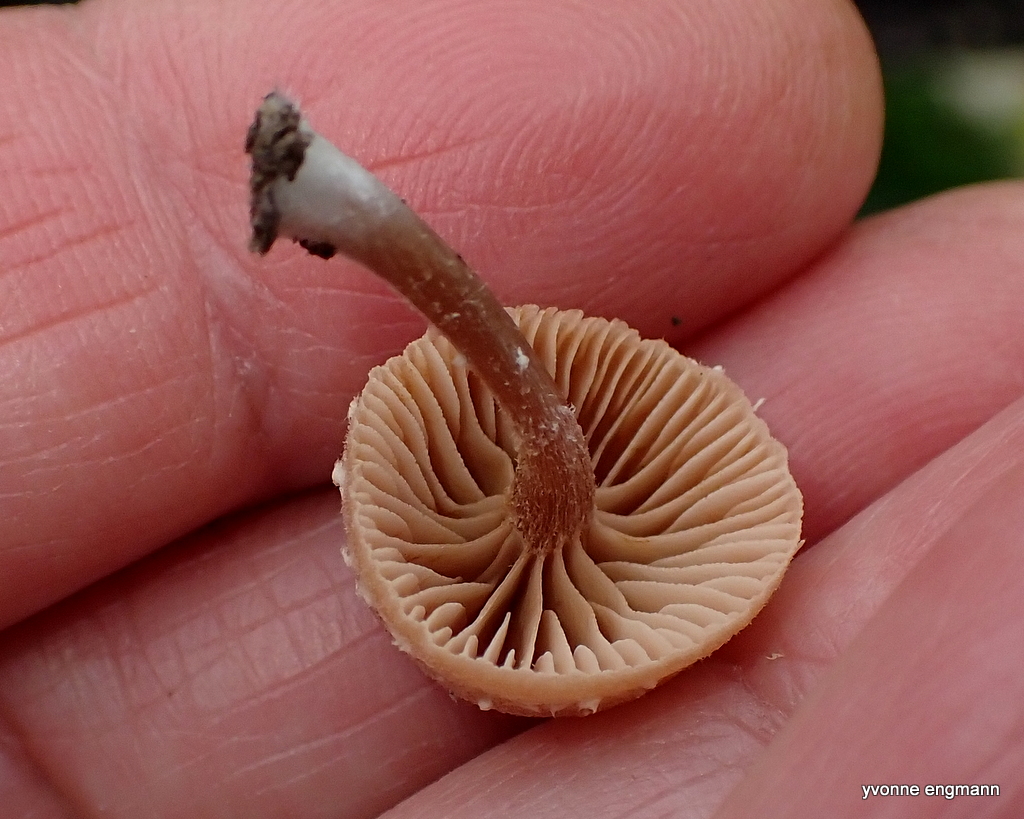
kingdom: Fungi
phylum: Basidiomycota
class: Agaricomycetes
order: Agaricales
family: Tubariaceae
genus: Tubaria
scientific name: Tubaria furfuracea
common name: kliddet fnughat
